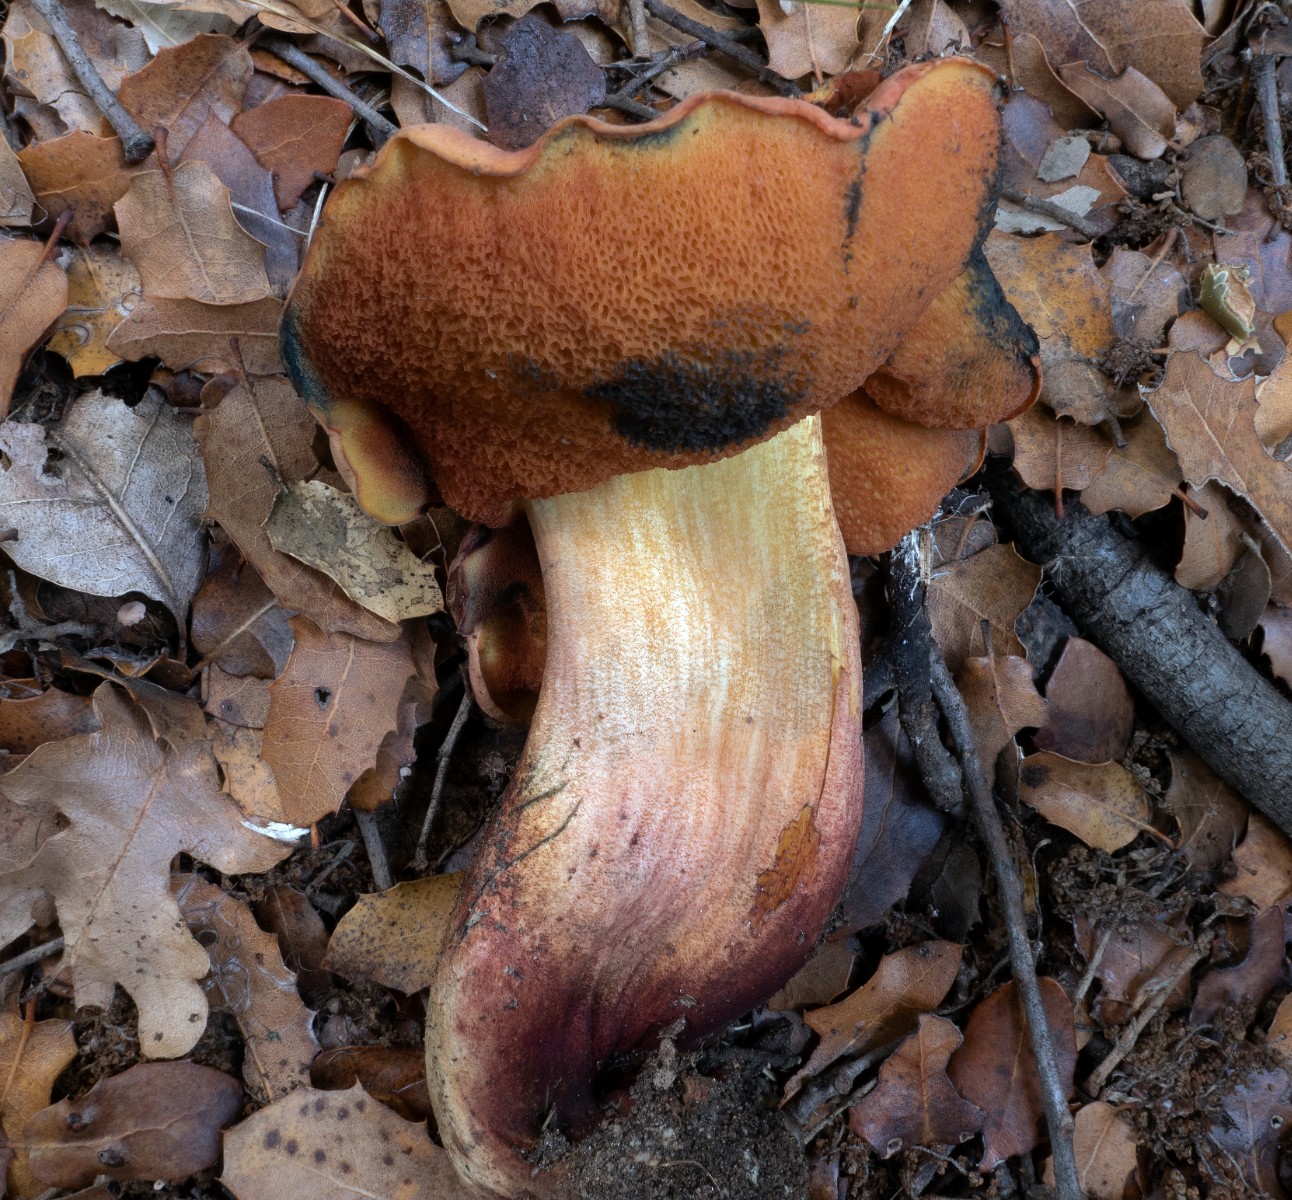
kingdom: Fungi
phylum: Basidiomycota
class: Agaricomycetes
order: Boletales
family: Boletaceae
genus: Suillellus
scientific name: Suillellus queletii
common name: glatstokket indigorørhat
